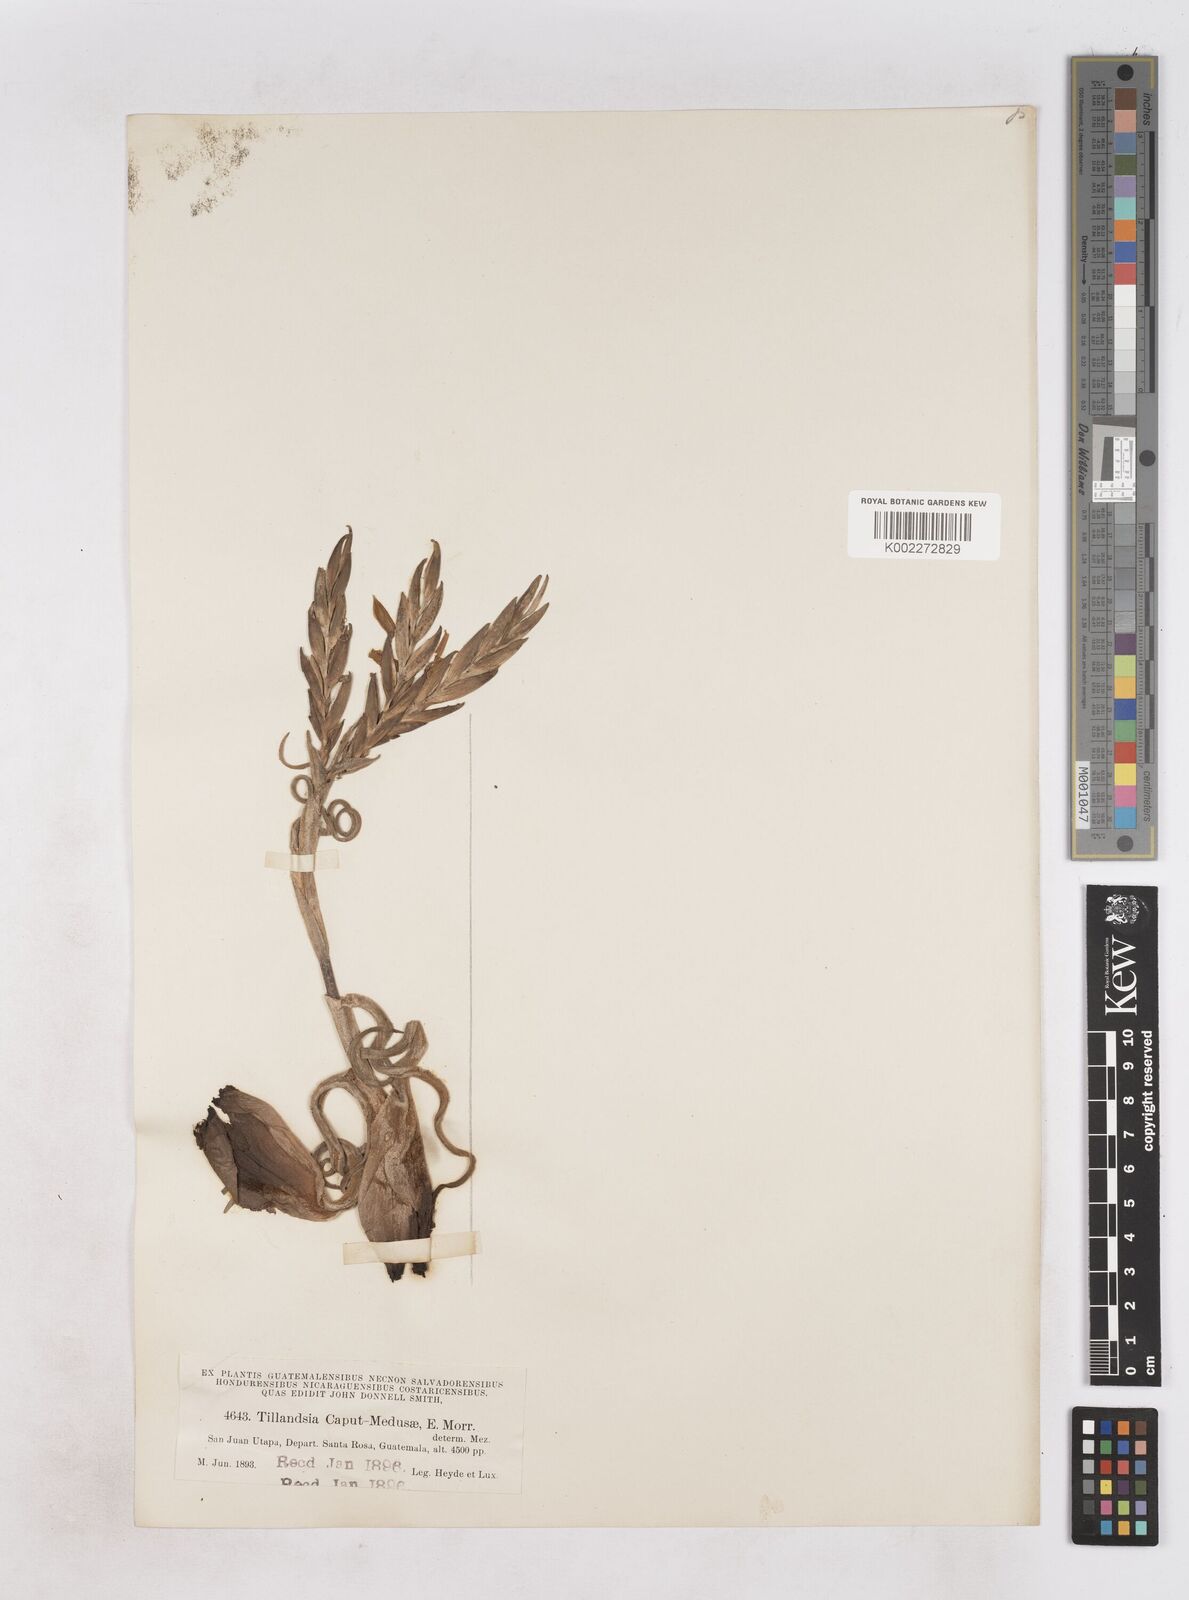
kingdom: Plantae
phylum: Tracheophyta
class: Liliopsida
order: Poales
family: Bromeliaceae
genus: Tillandsia
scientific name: Tillandsia caput-medusae
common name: Octopus plant
